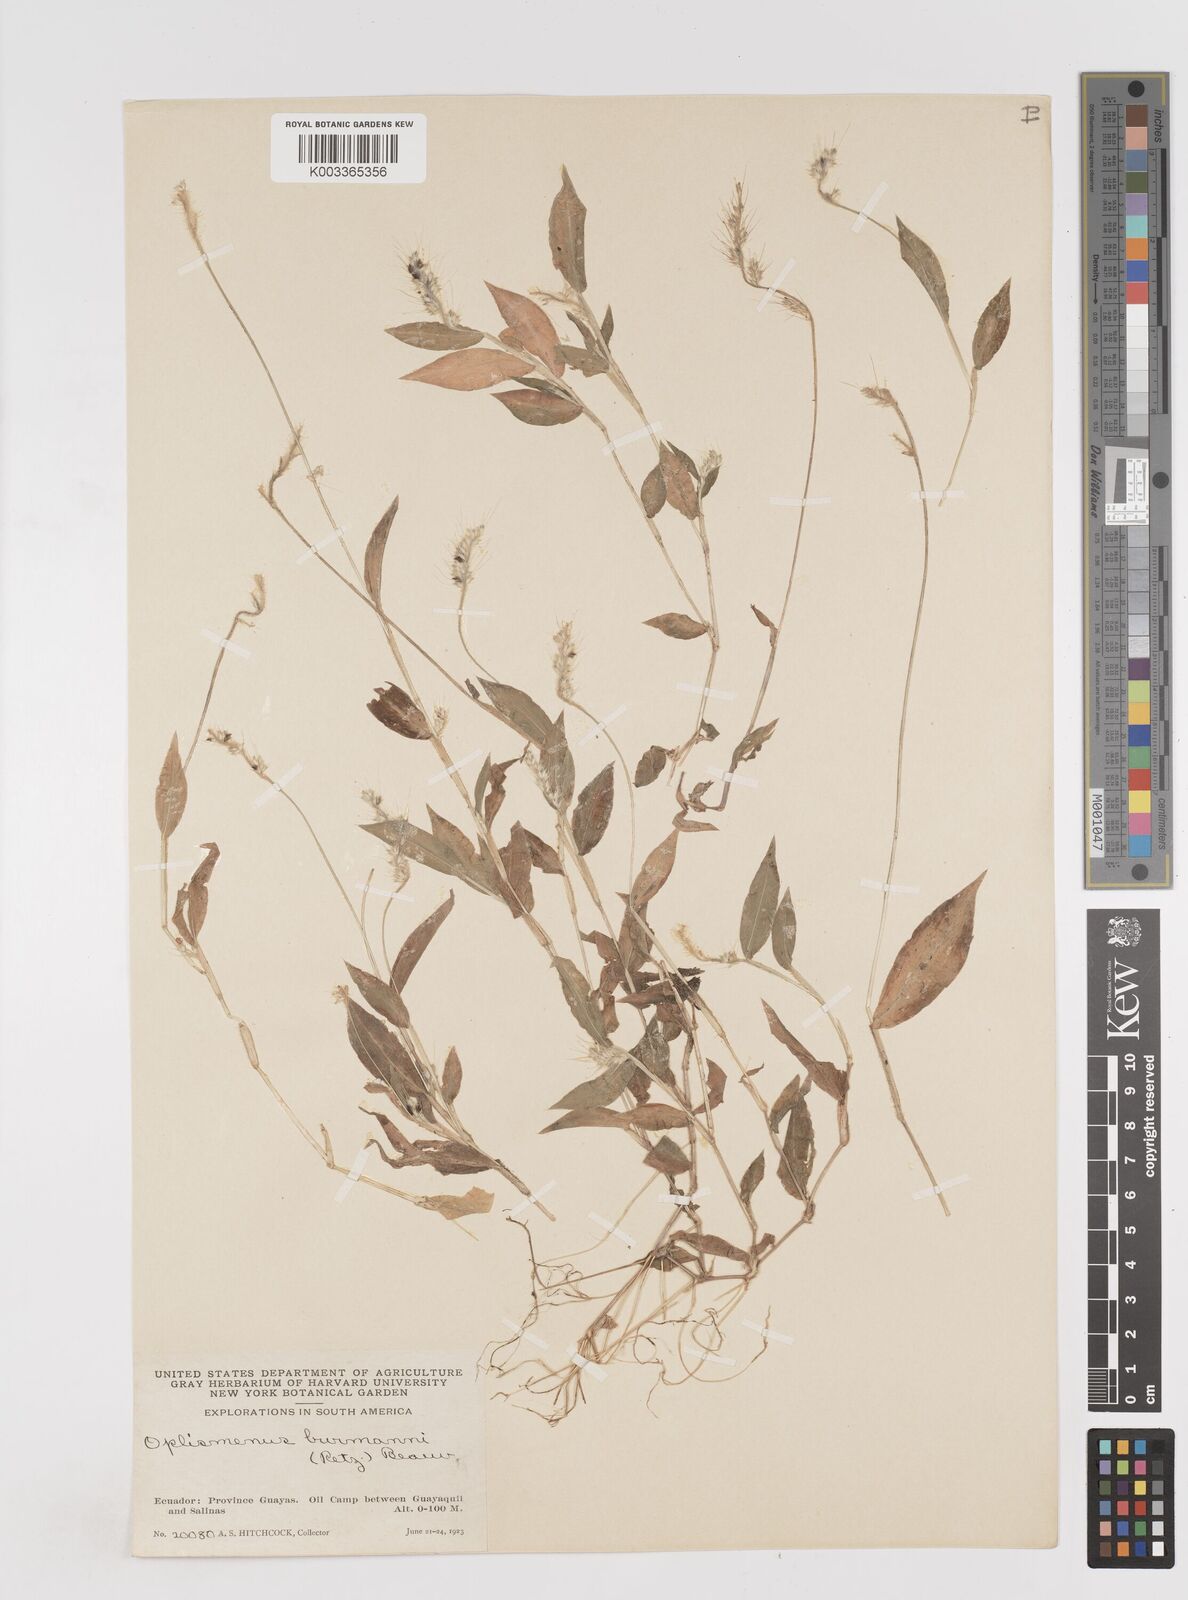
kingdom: Plantae
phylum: Tracheophyta
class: Liliopsida
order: Poales
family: Poaceae
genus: Oplismenus
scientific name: Oplismenus burmanni
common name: Burmann's basketgrass
